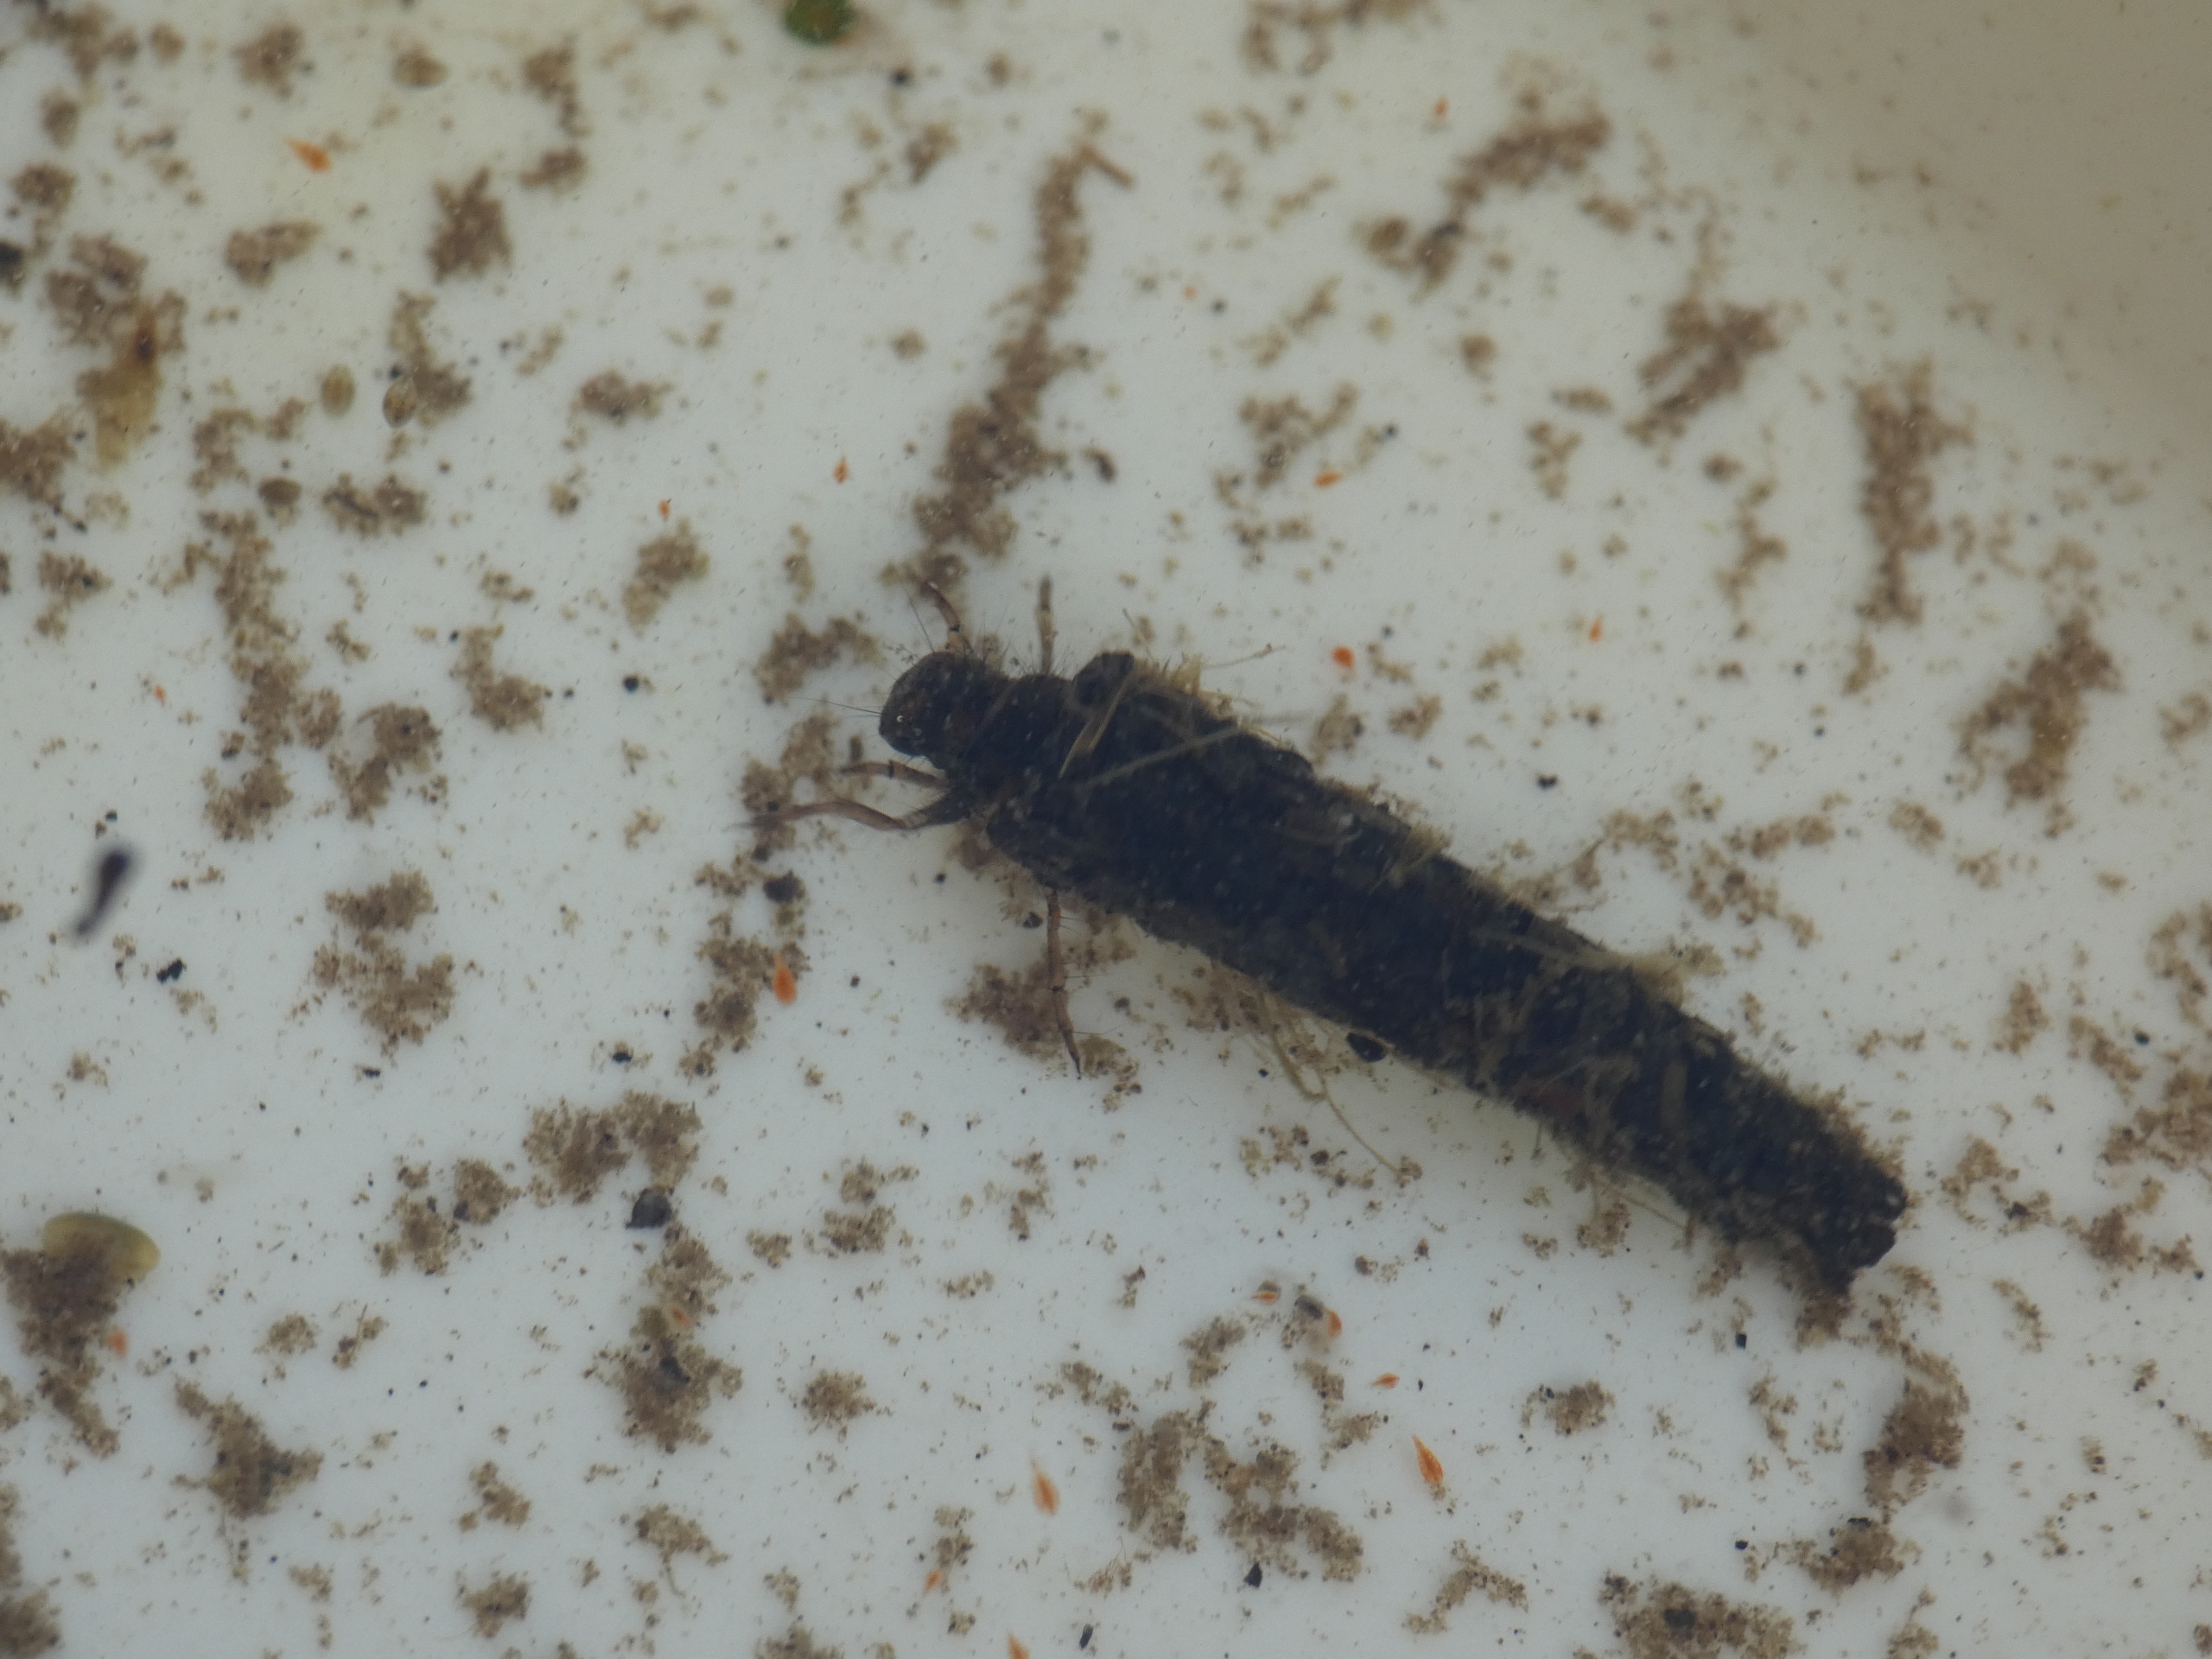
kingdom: Animalia
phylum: Arthropoda
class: Insecta
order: Trichoptera
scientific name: Trichoptera
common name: Vårfluer
